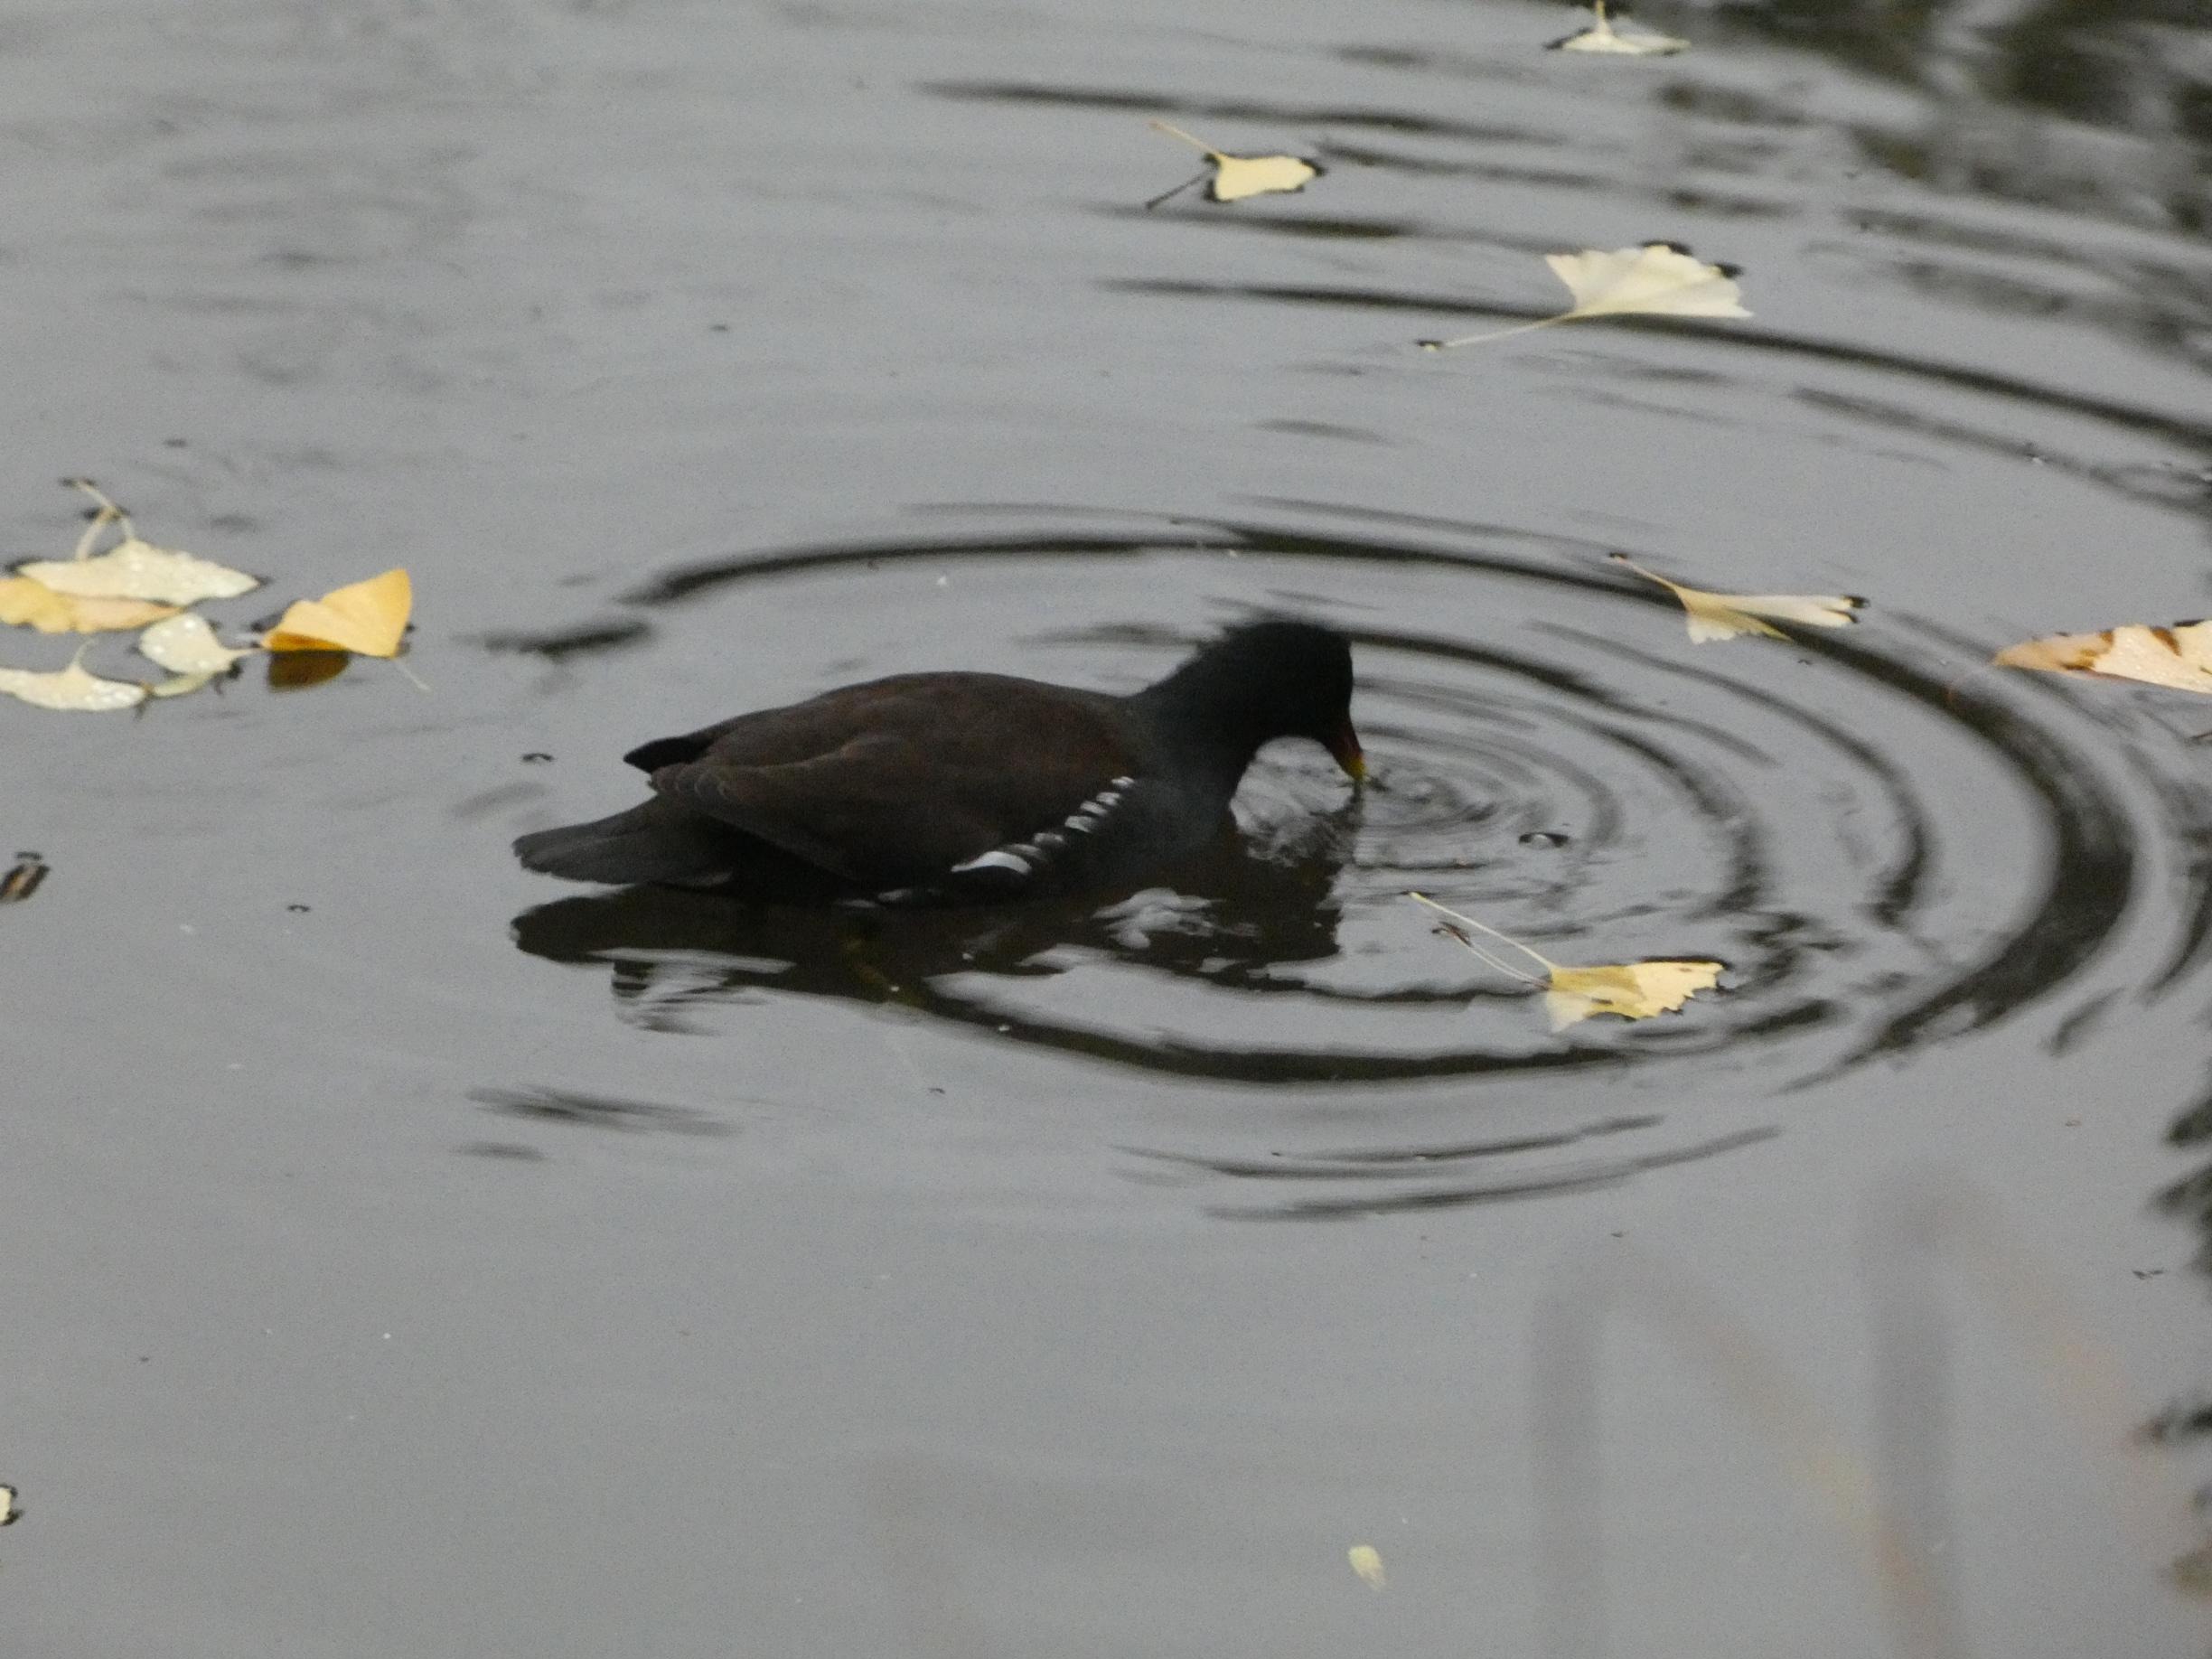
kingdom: Animalia
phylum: Chordata
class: Aves
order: Gruiformes
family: Rallidae
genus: Gallinula
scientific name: Gallinula chloropus
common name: Grønbenet rørhøne
